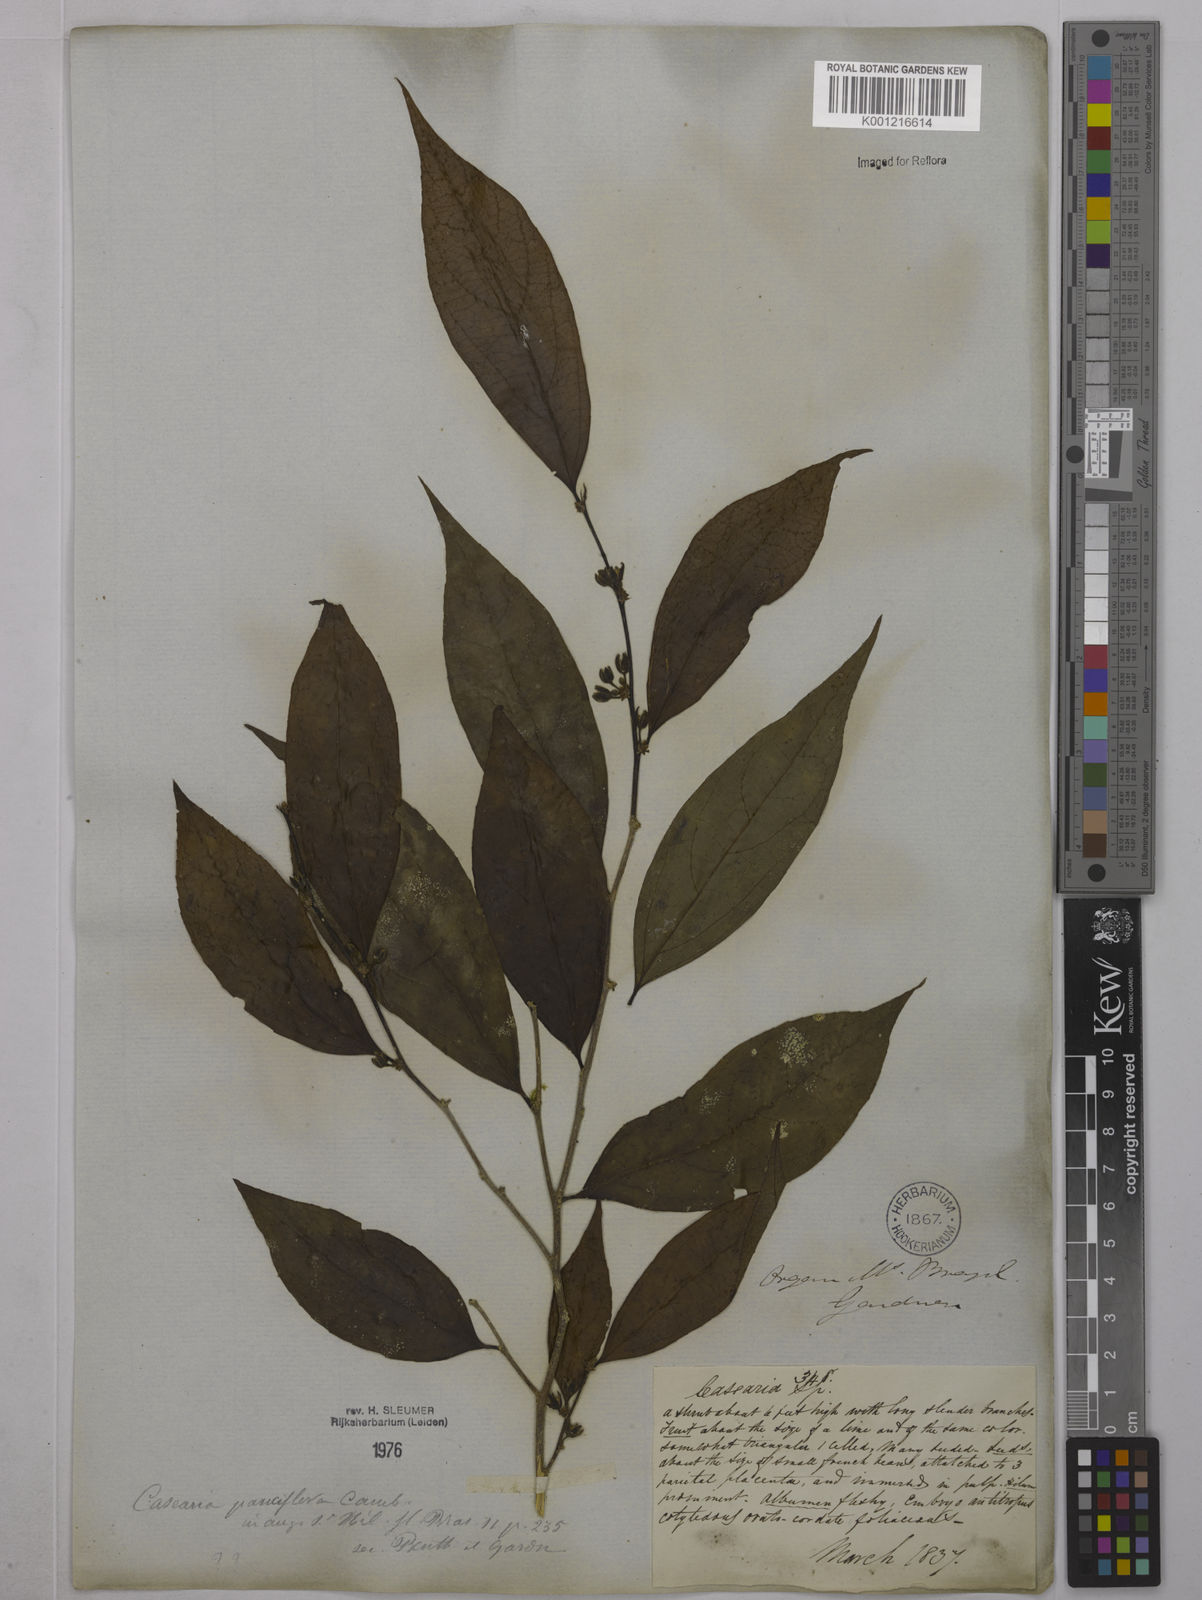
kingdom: Plantae
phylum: Tracheophyta
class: Magnoliopsida
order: Malpighiales
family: Salicaceae
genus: Casearia
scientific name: Casearia pauciflora
